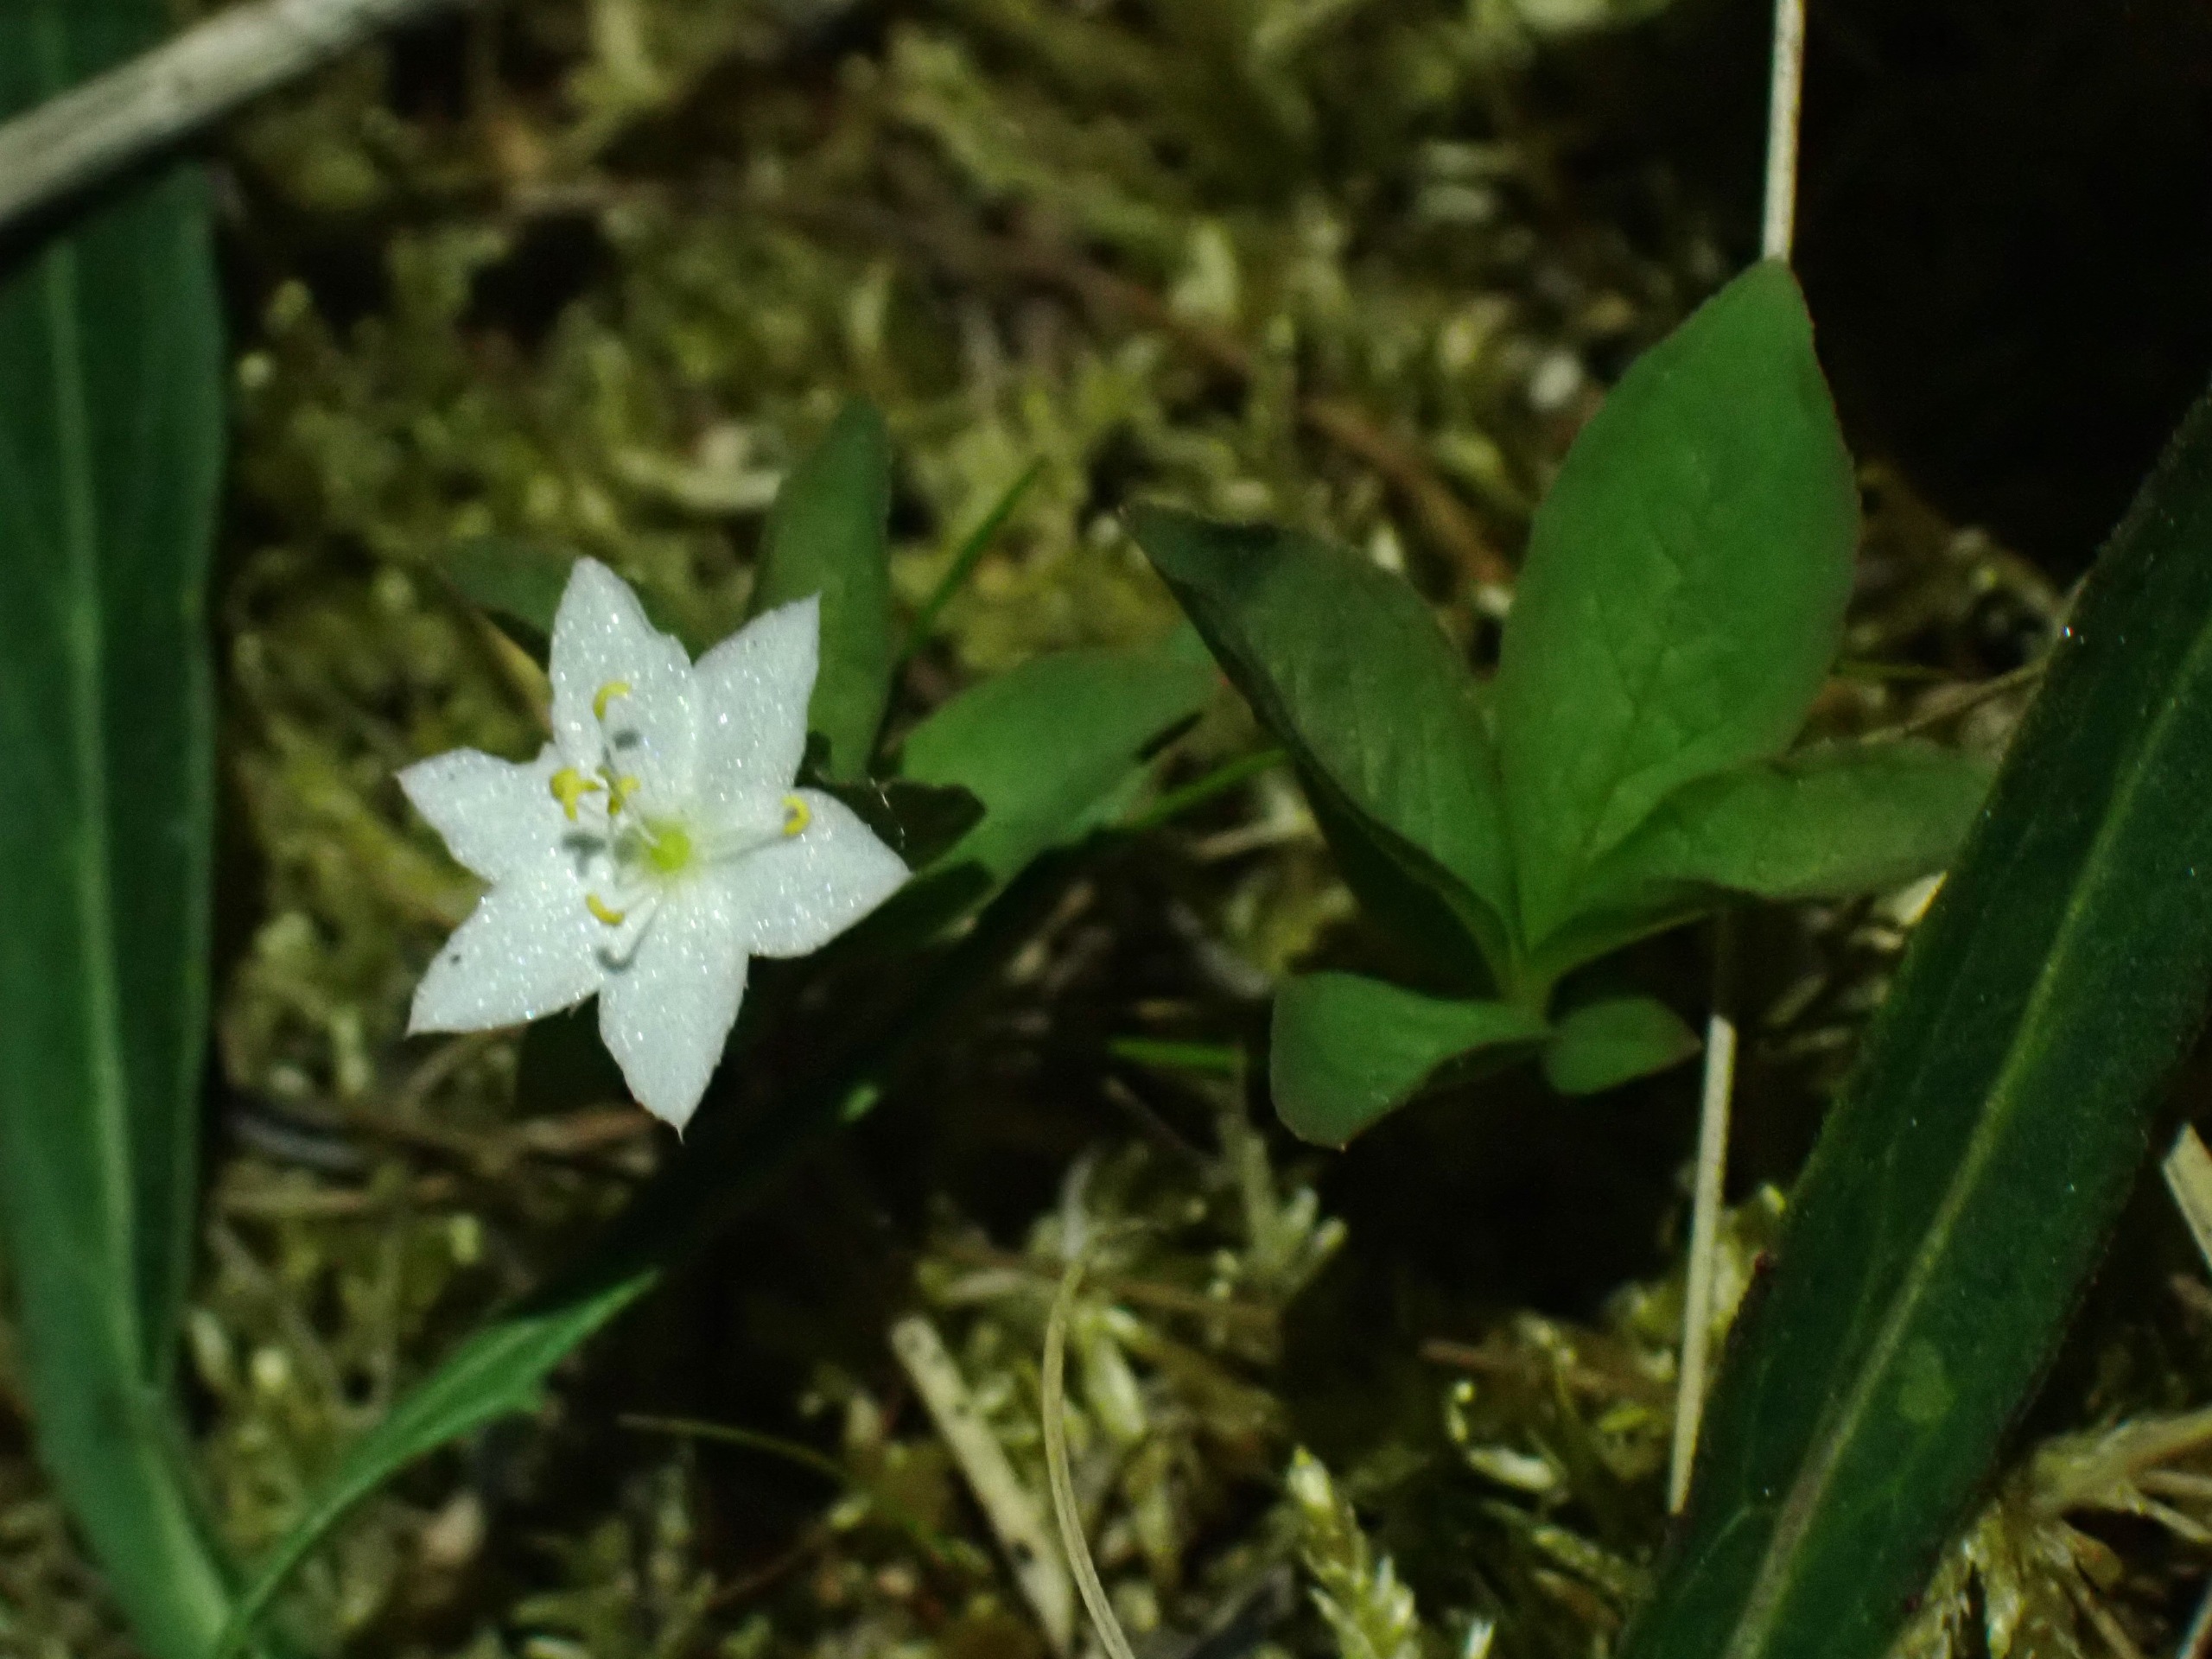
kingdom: Plantae
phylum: Tracheophyta
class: Magnoliopsida
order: Ericales
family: Primulaceae
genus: Lysimachia
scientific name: Lysimachia europaea
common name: Skovstjerne
